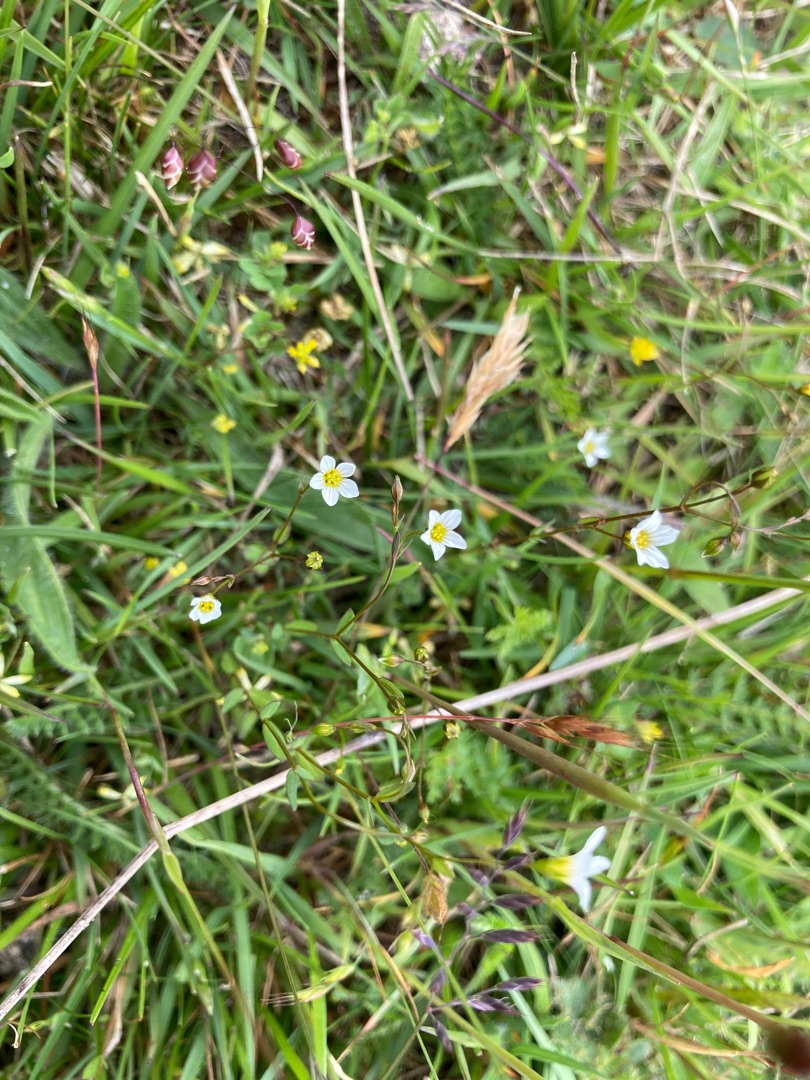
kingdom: Plantae
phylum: Tracheophyta
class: Magnoliopsida
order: Malpighiales
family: Linaceae
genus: Linum
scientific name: Linum catharticum
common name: Vild hør
